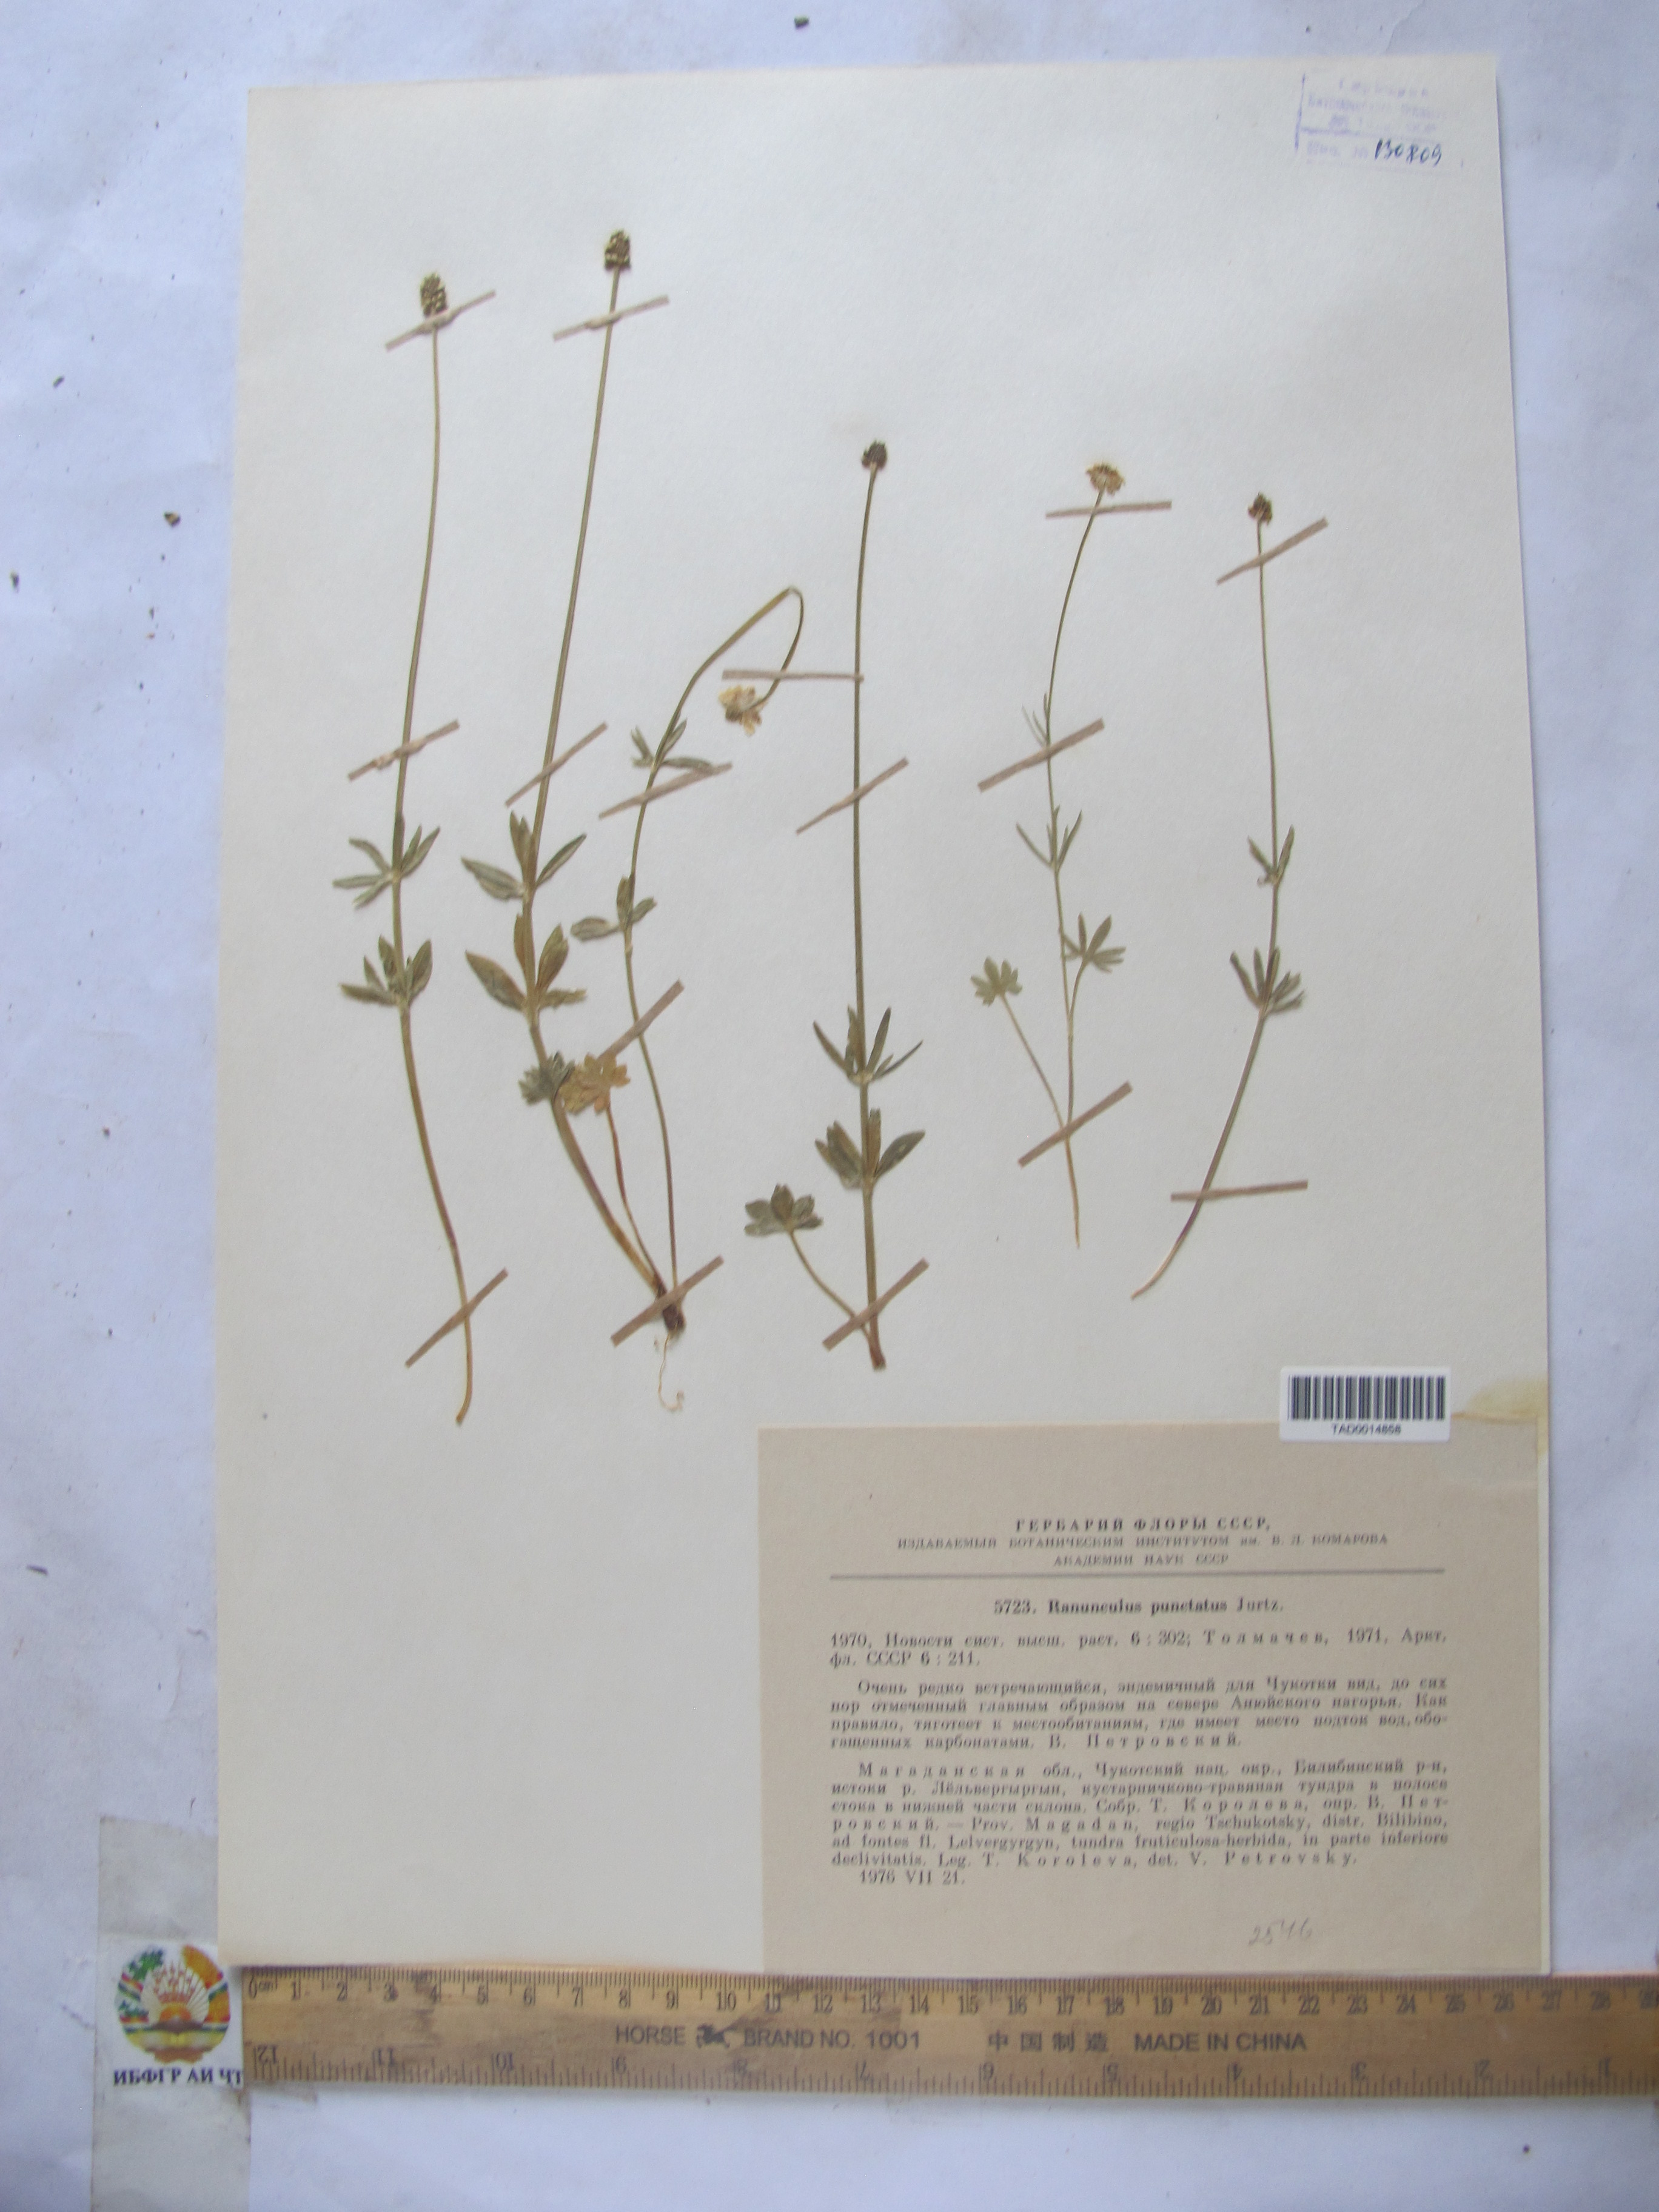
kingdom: Plantae
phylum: Tracheophyta
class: Magnoliopsida
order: Ranunculales
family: Ranunculaceae
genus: Ranunculus
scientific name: Ranunculus punctatus
